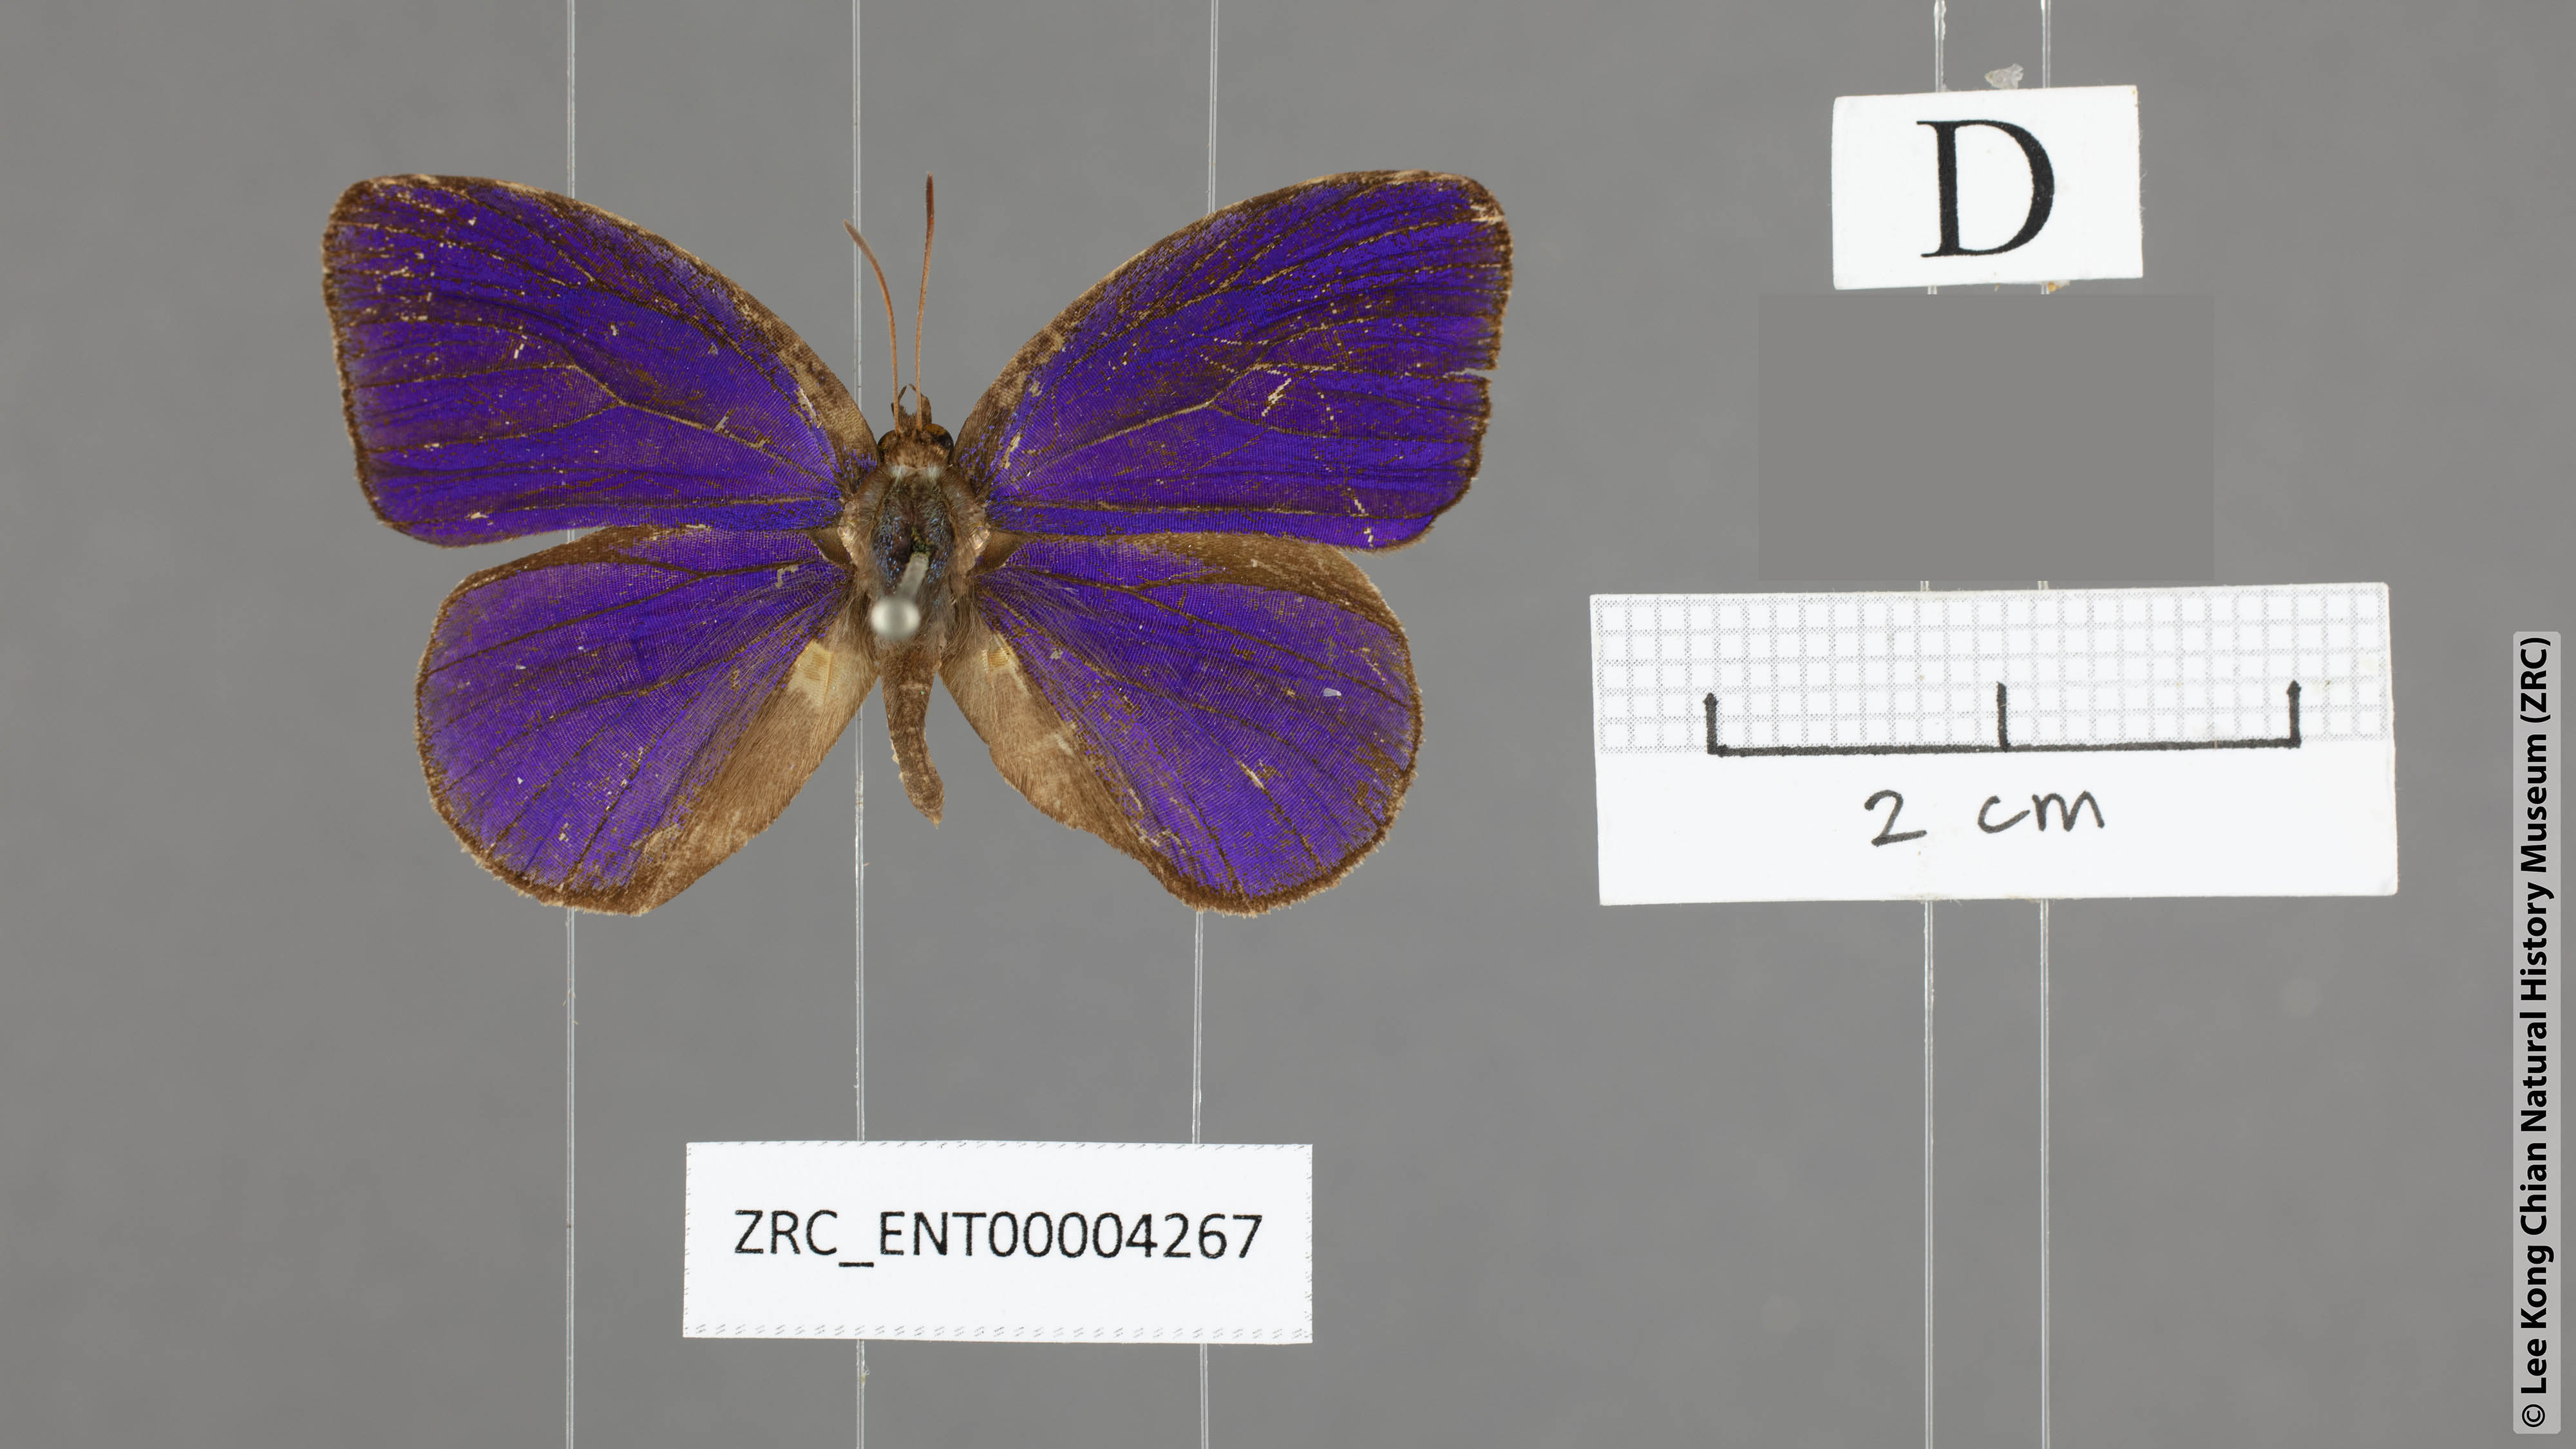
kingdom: Animalia
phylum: Arthropoda
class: Insecta
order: Lepidoptera
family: Lycaenidae
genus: Flos
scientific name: Flos
